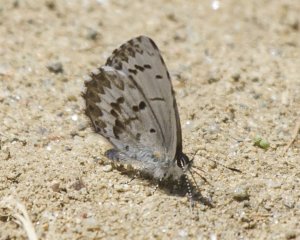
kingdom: Animalia
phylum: Arthropoda
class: Insecta
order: Lepidoptera
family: Lycaenidae
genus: Celastrina
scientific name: Celastrina lucia
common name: Northern Spring Azure
